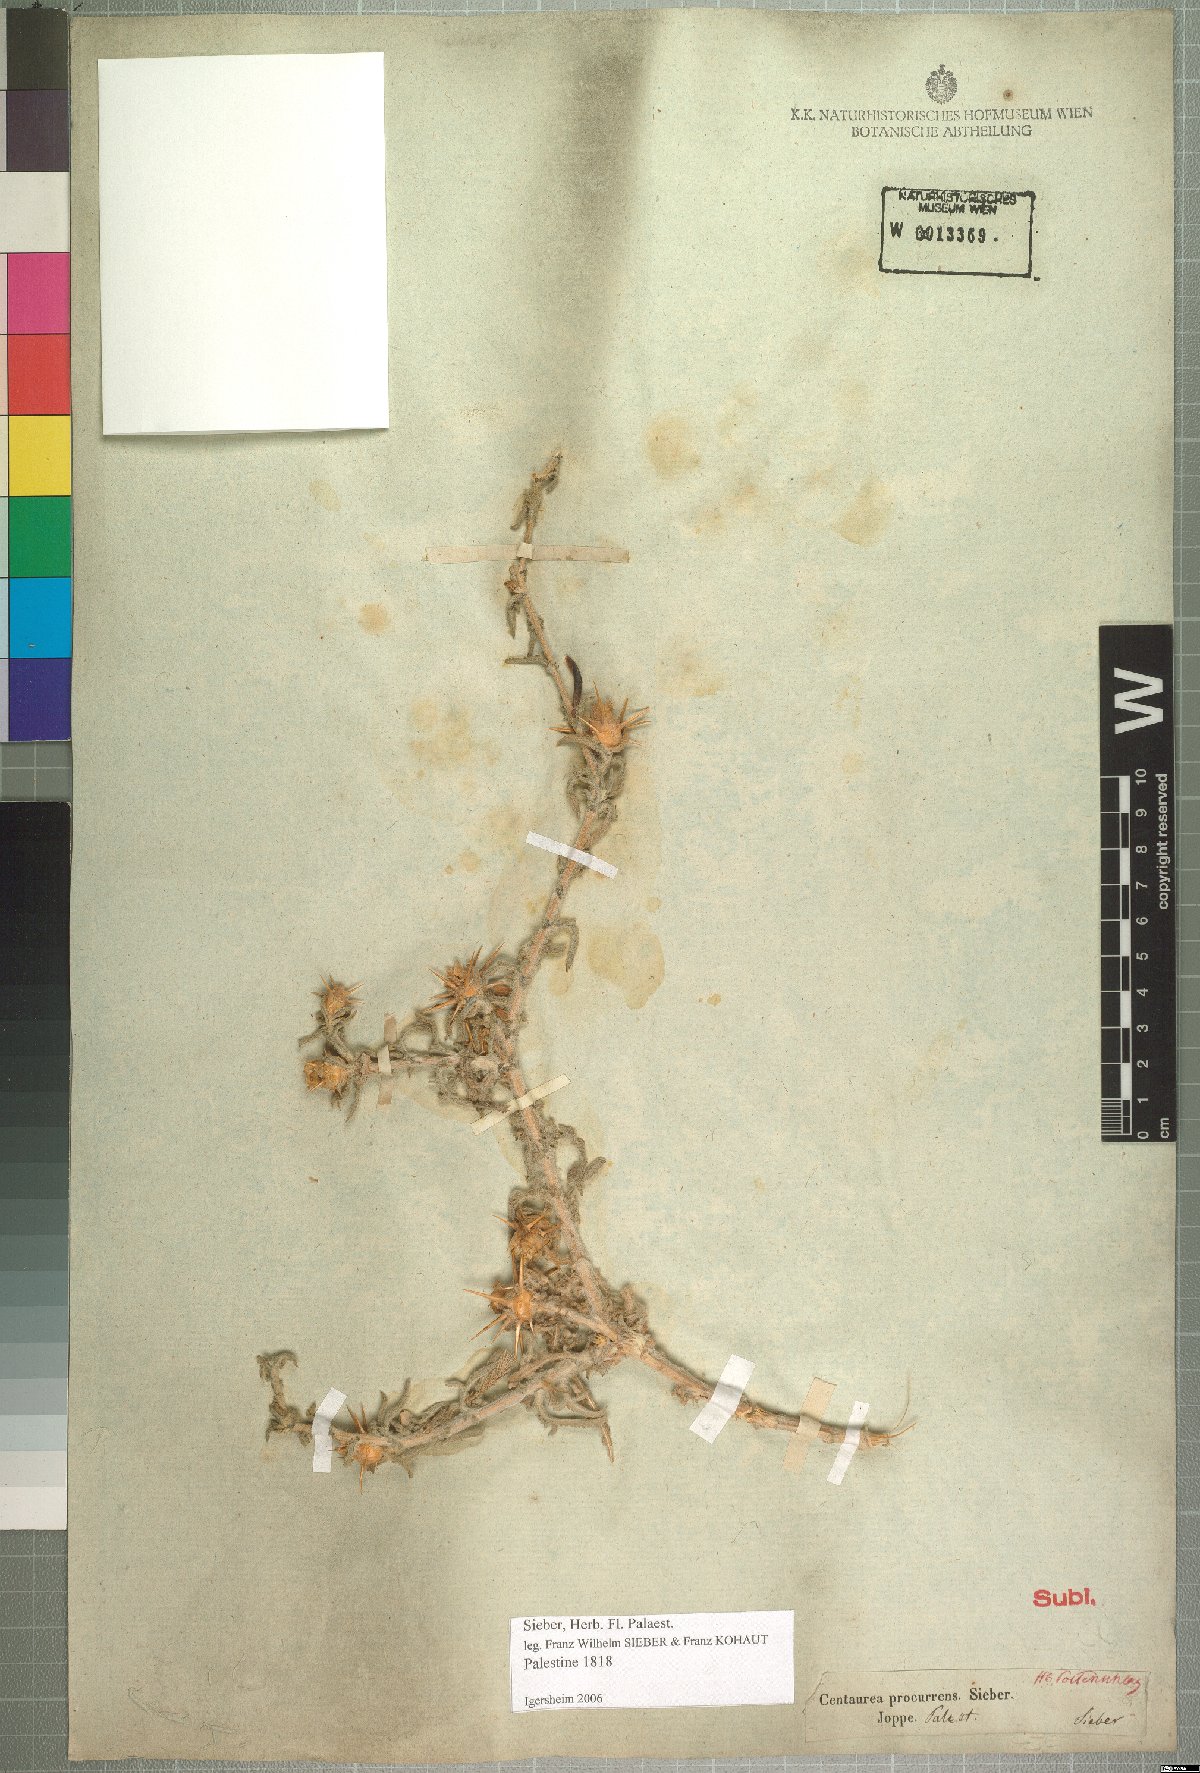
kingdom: Plantae
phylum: Tracheophyta
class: Magnoliopsida
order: Asterales
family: Asteraceae
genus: Centaurea
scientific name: Centaurea procurrens
